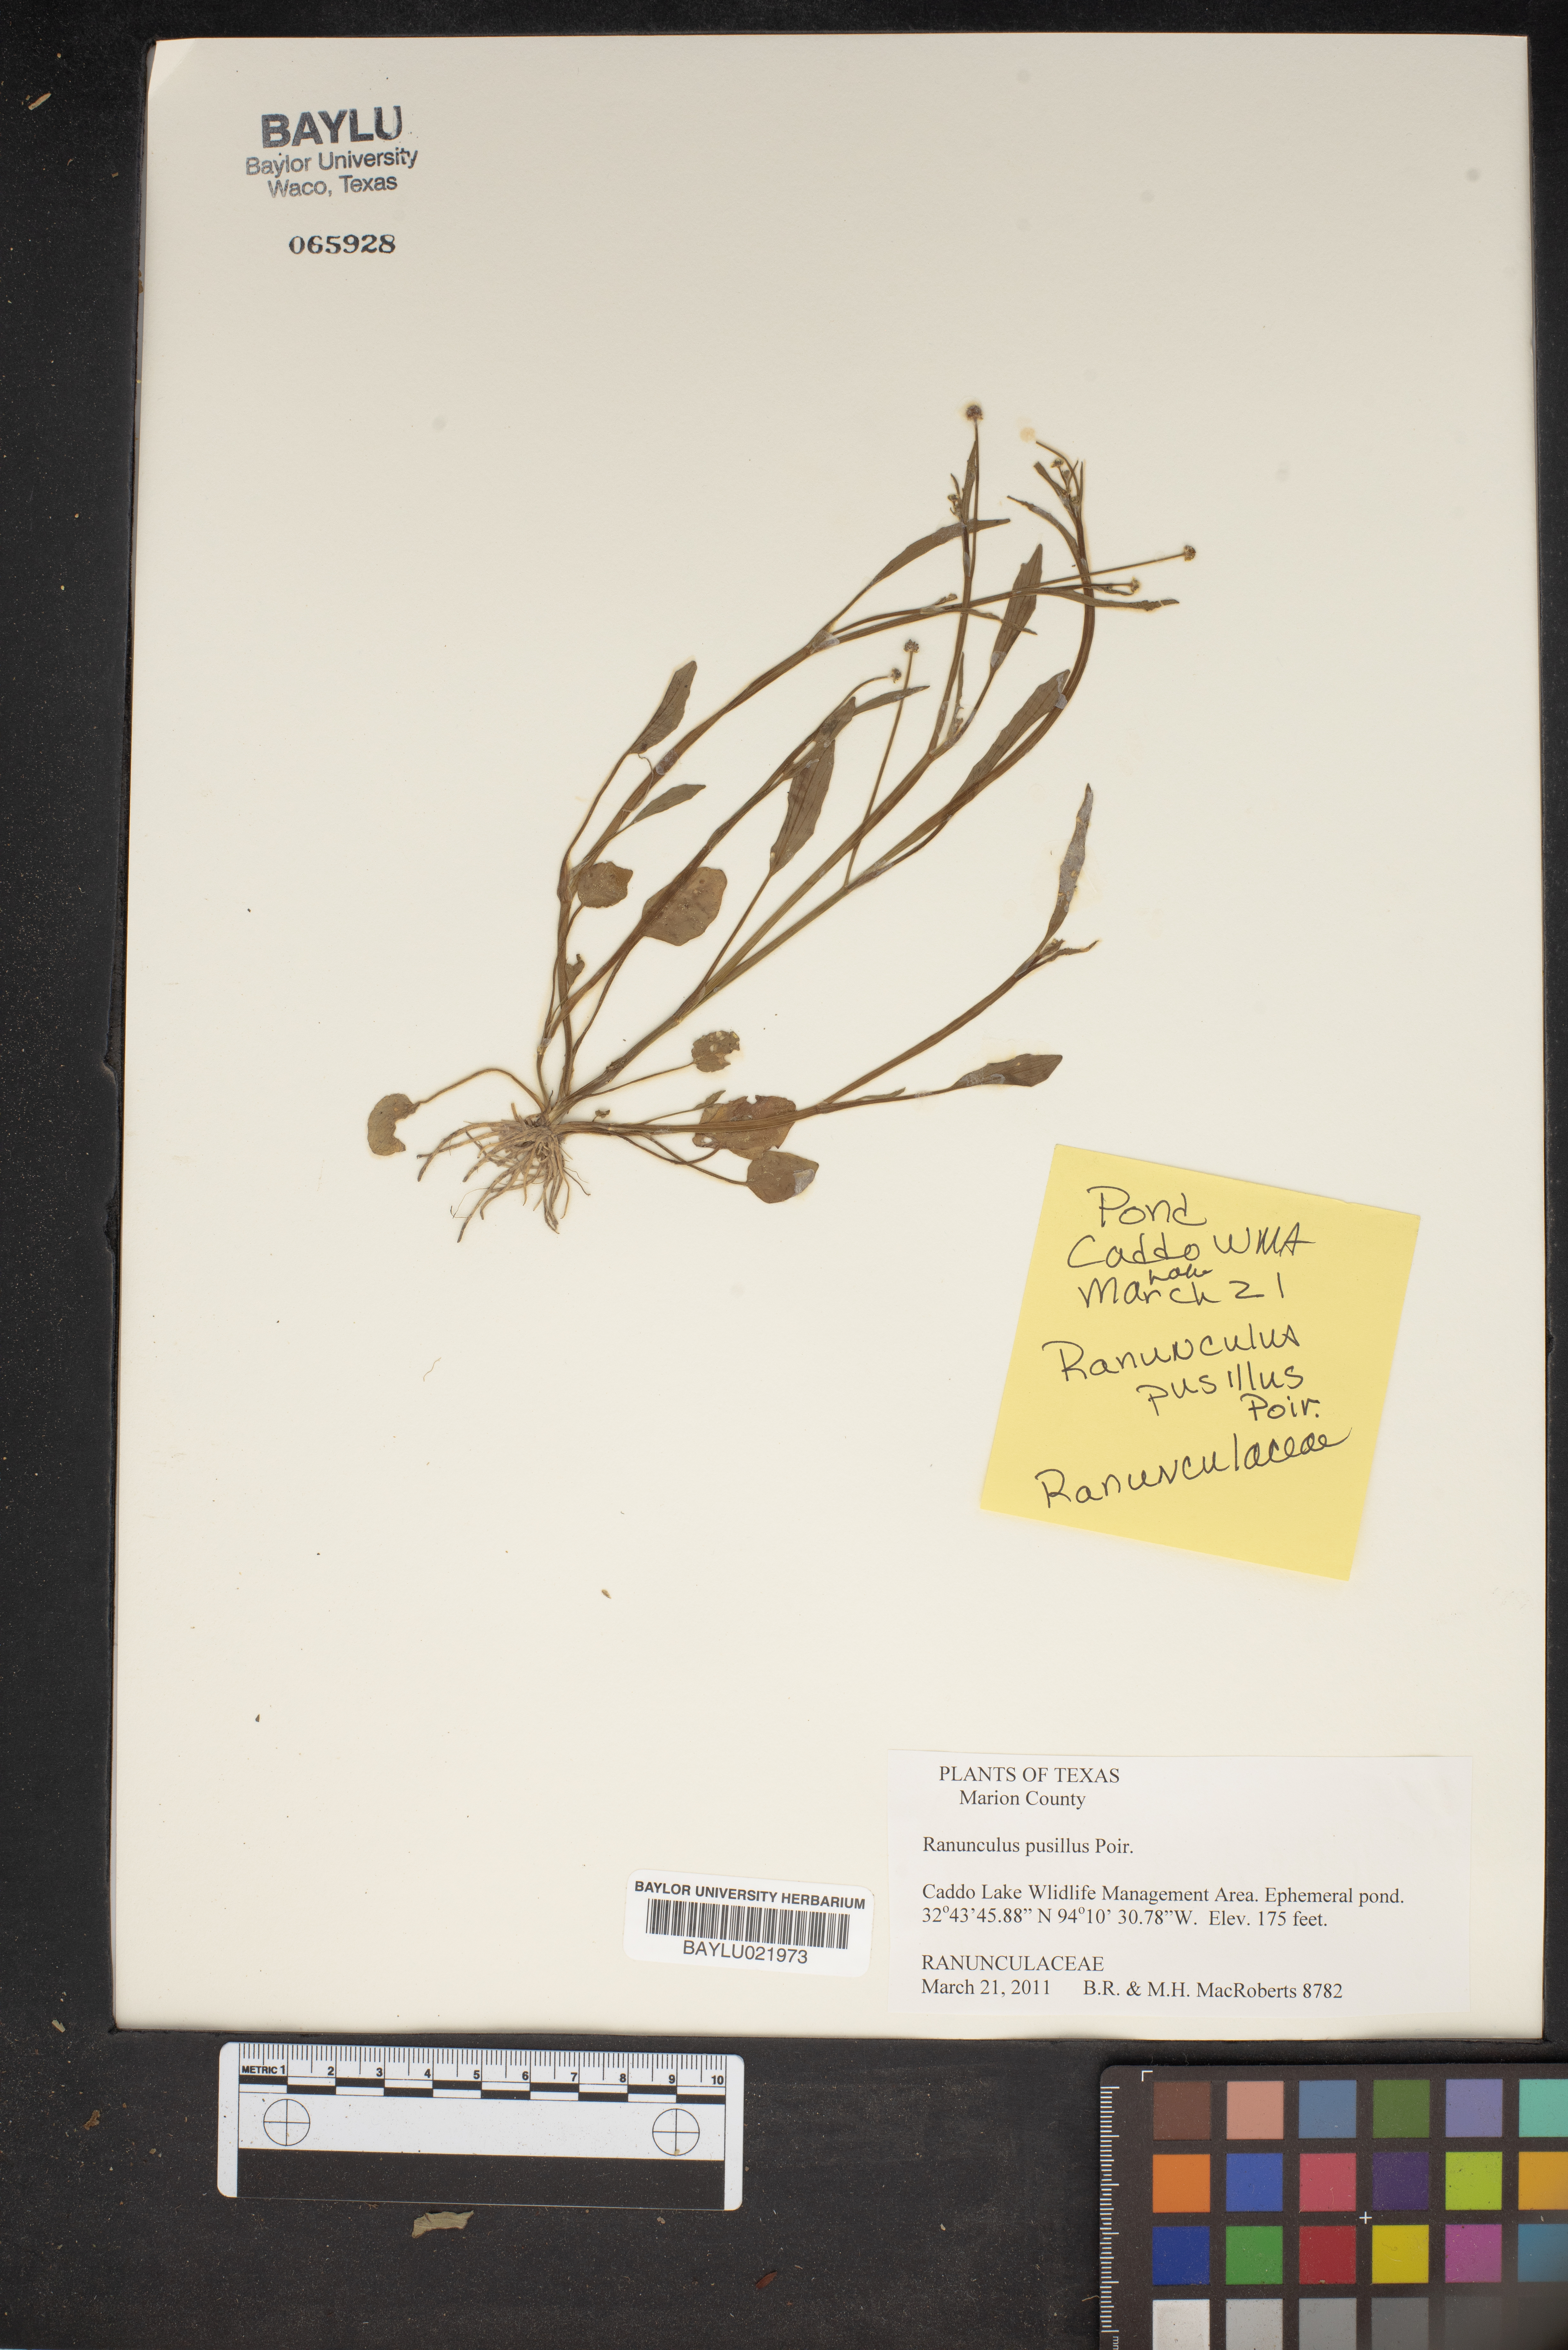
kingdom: Plantae
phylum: Tracheophyta
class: Magnoliopsida
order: Ranunculales
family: Ranunculaceae
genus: Ranunculus
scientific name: Ranunculus pusillus
